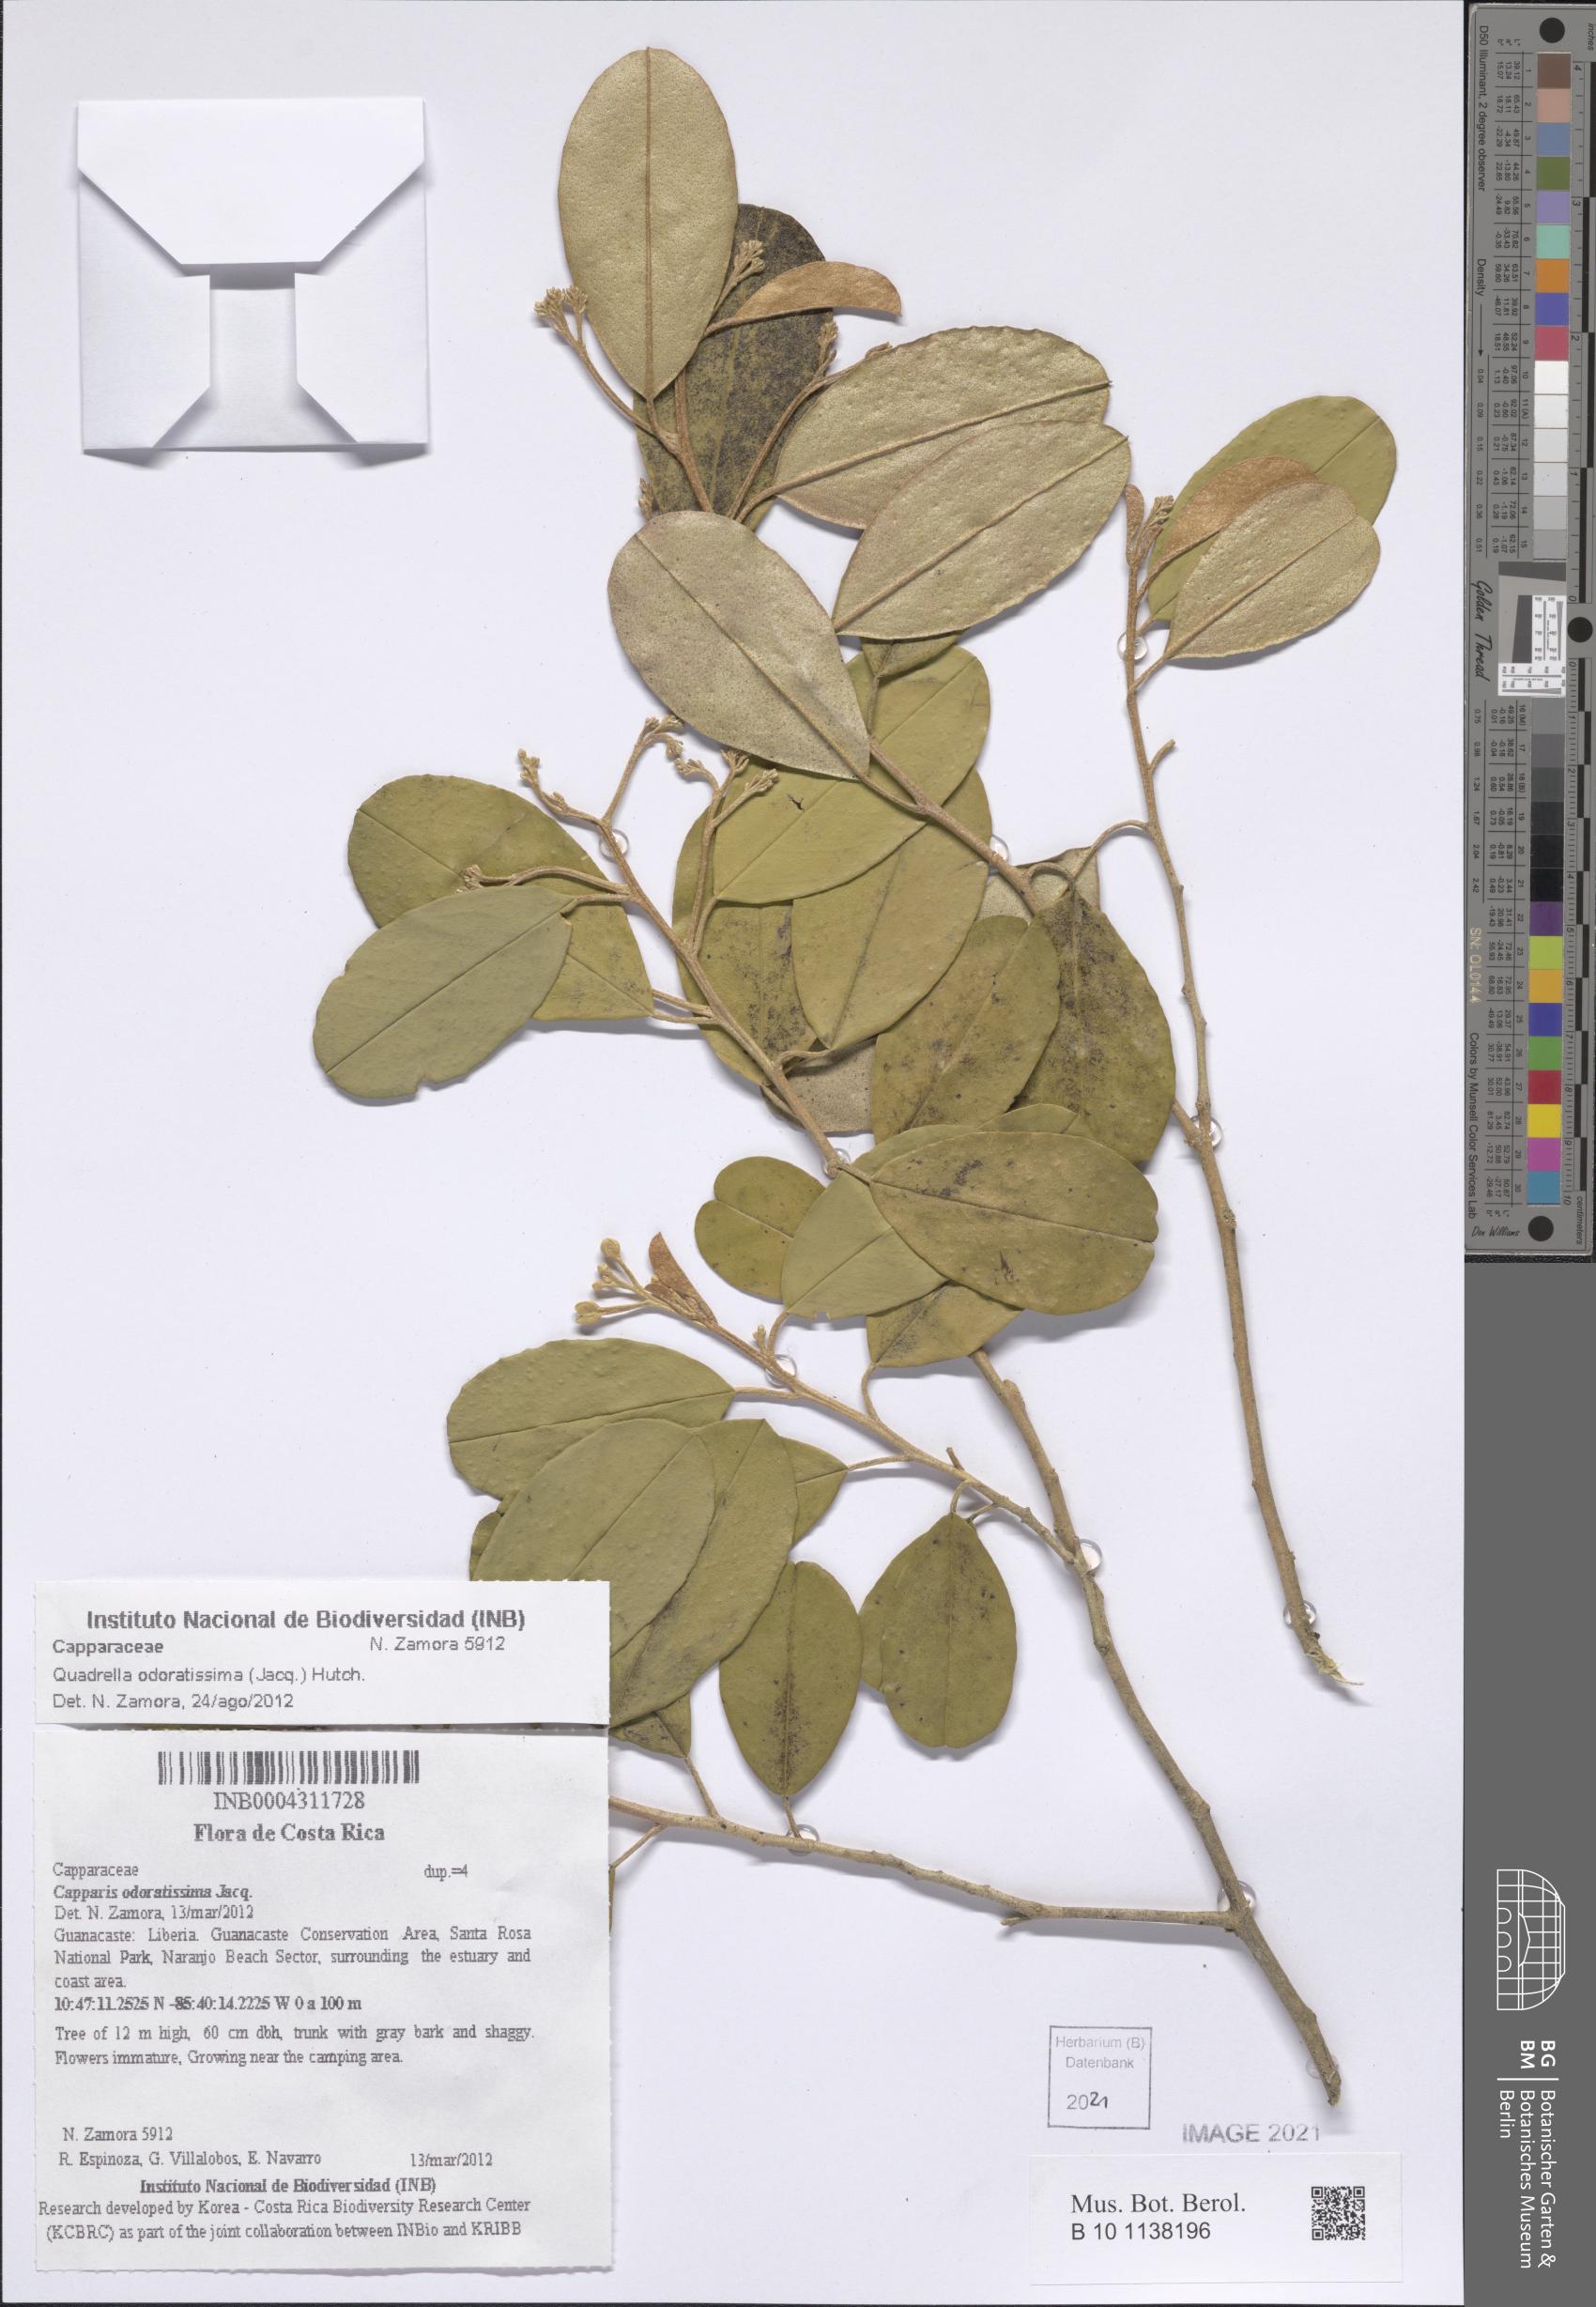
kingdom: Plantae
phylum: Tracheophyta
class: Magnoliopsida
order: Brassicales
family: Capparaceae
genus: Quadrella
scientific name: Quadrella odoratissima
